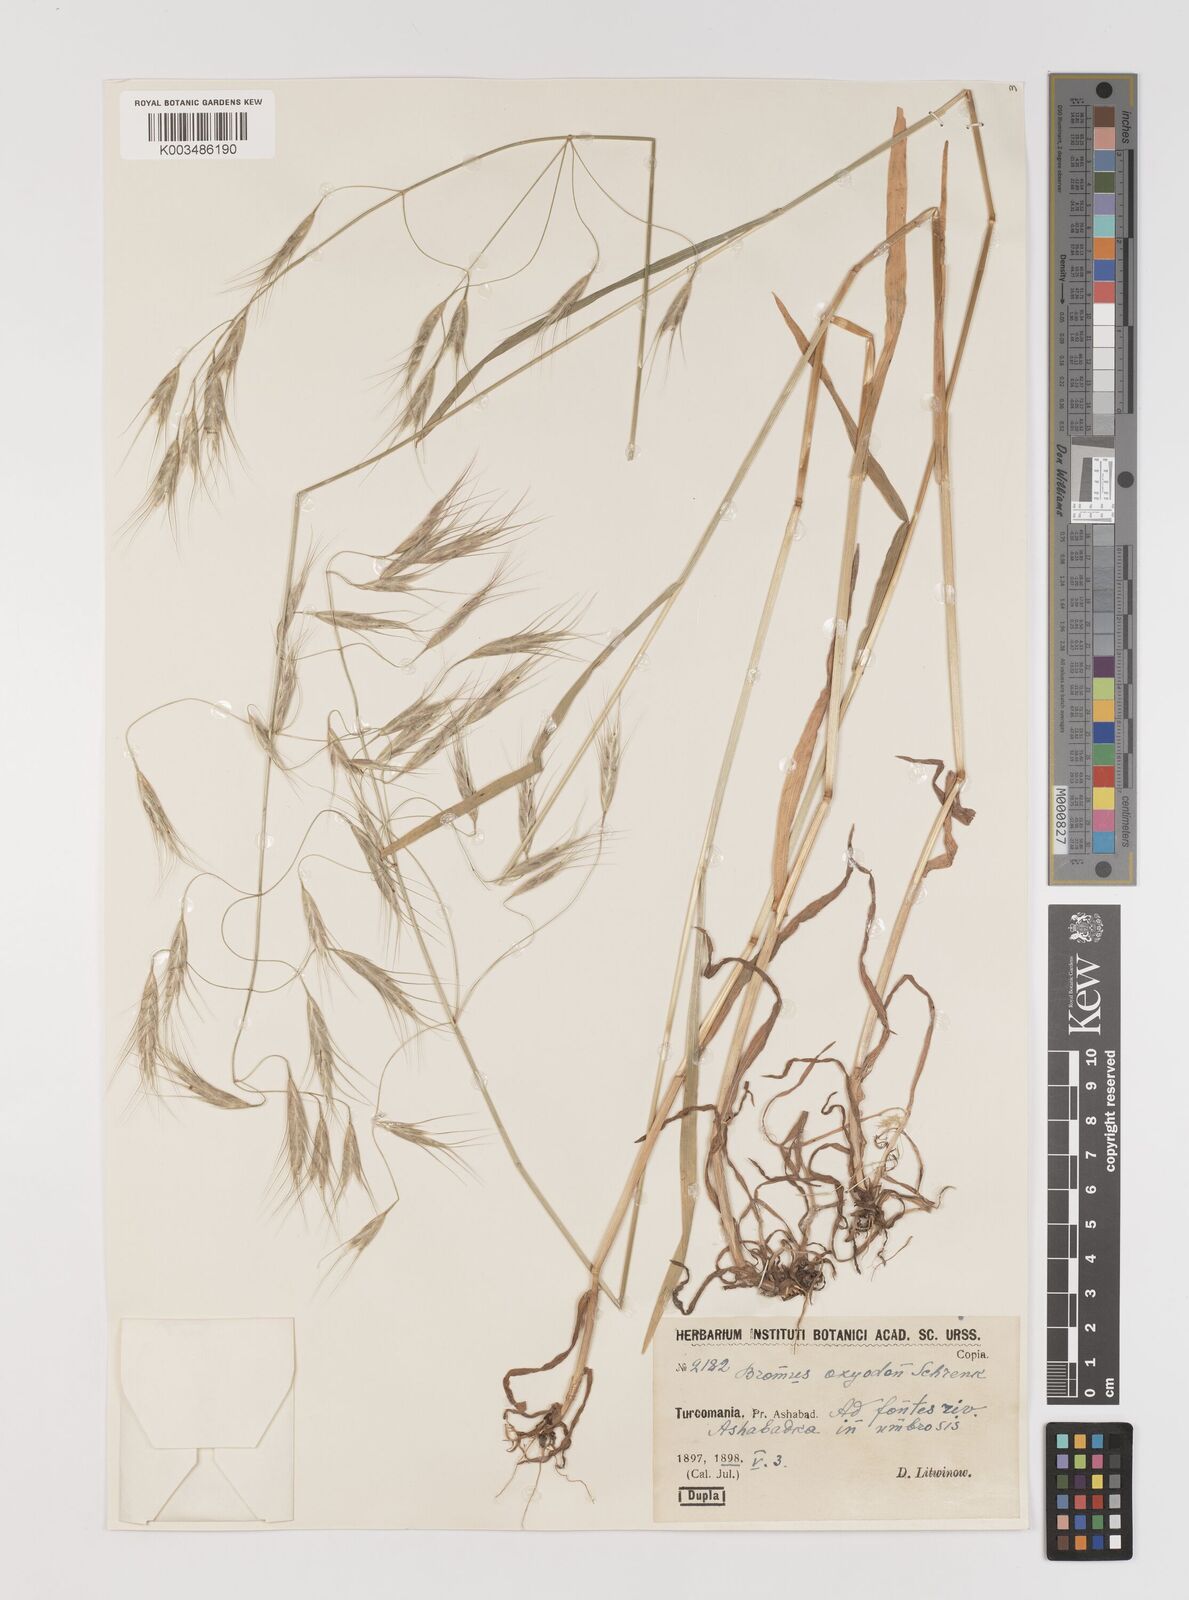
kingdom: Plantae
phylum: Tracheophyta
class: Liliopsida
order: Poales
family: Poaceae
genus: Bromus
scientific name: Bromus oxyodon
